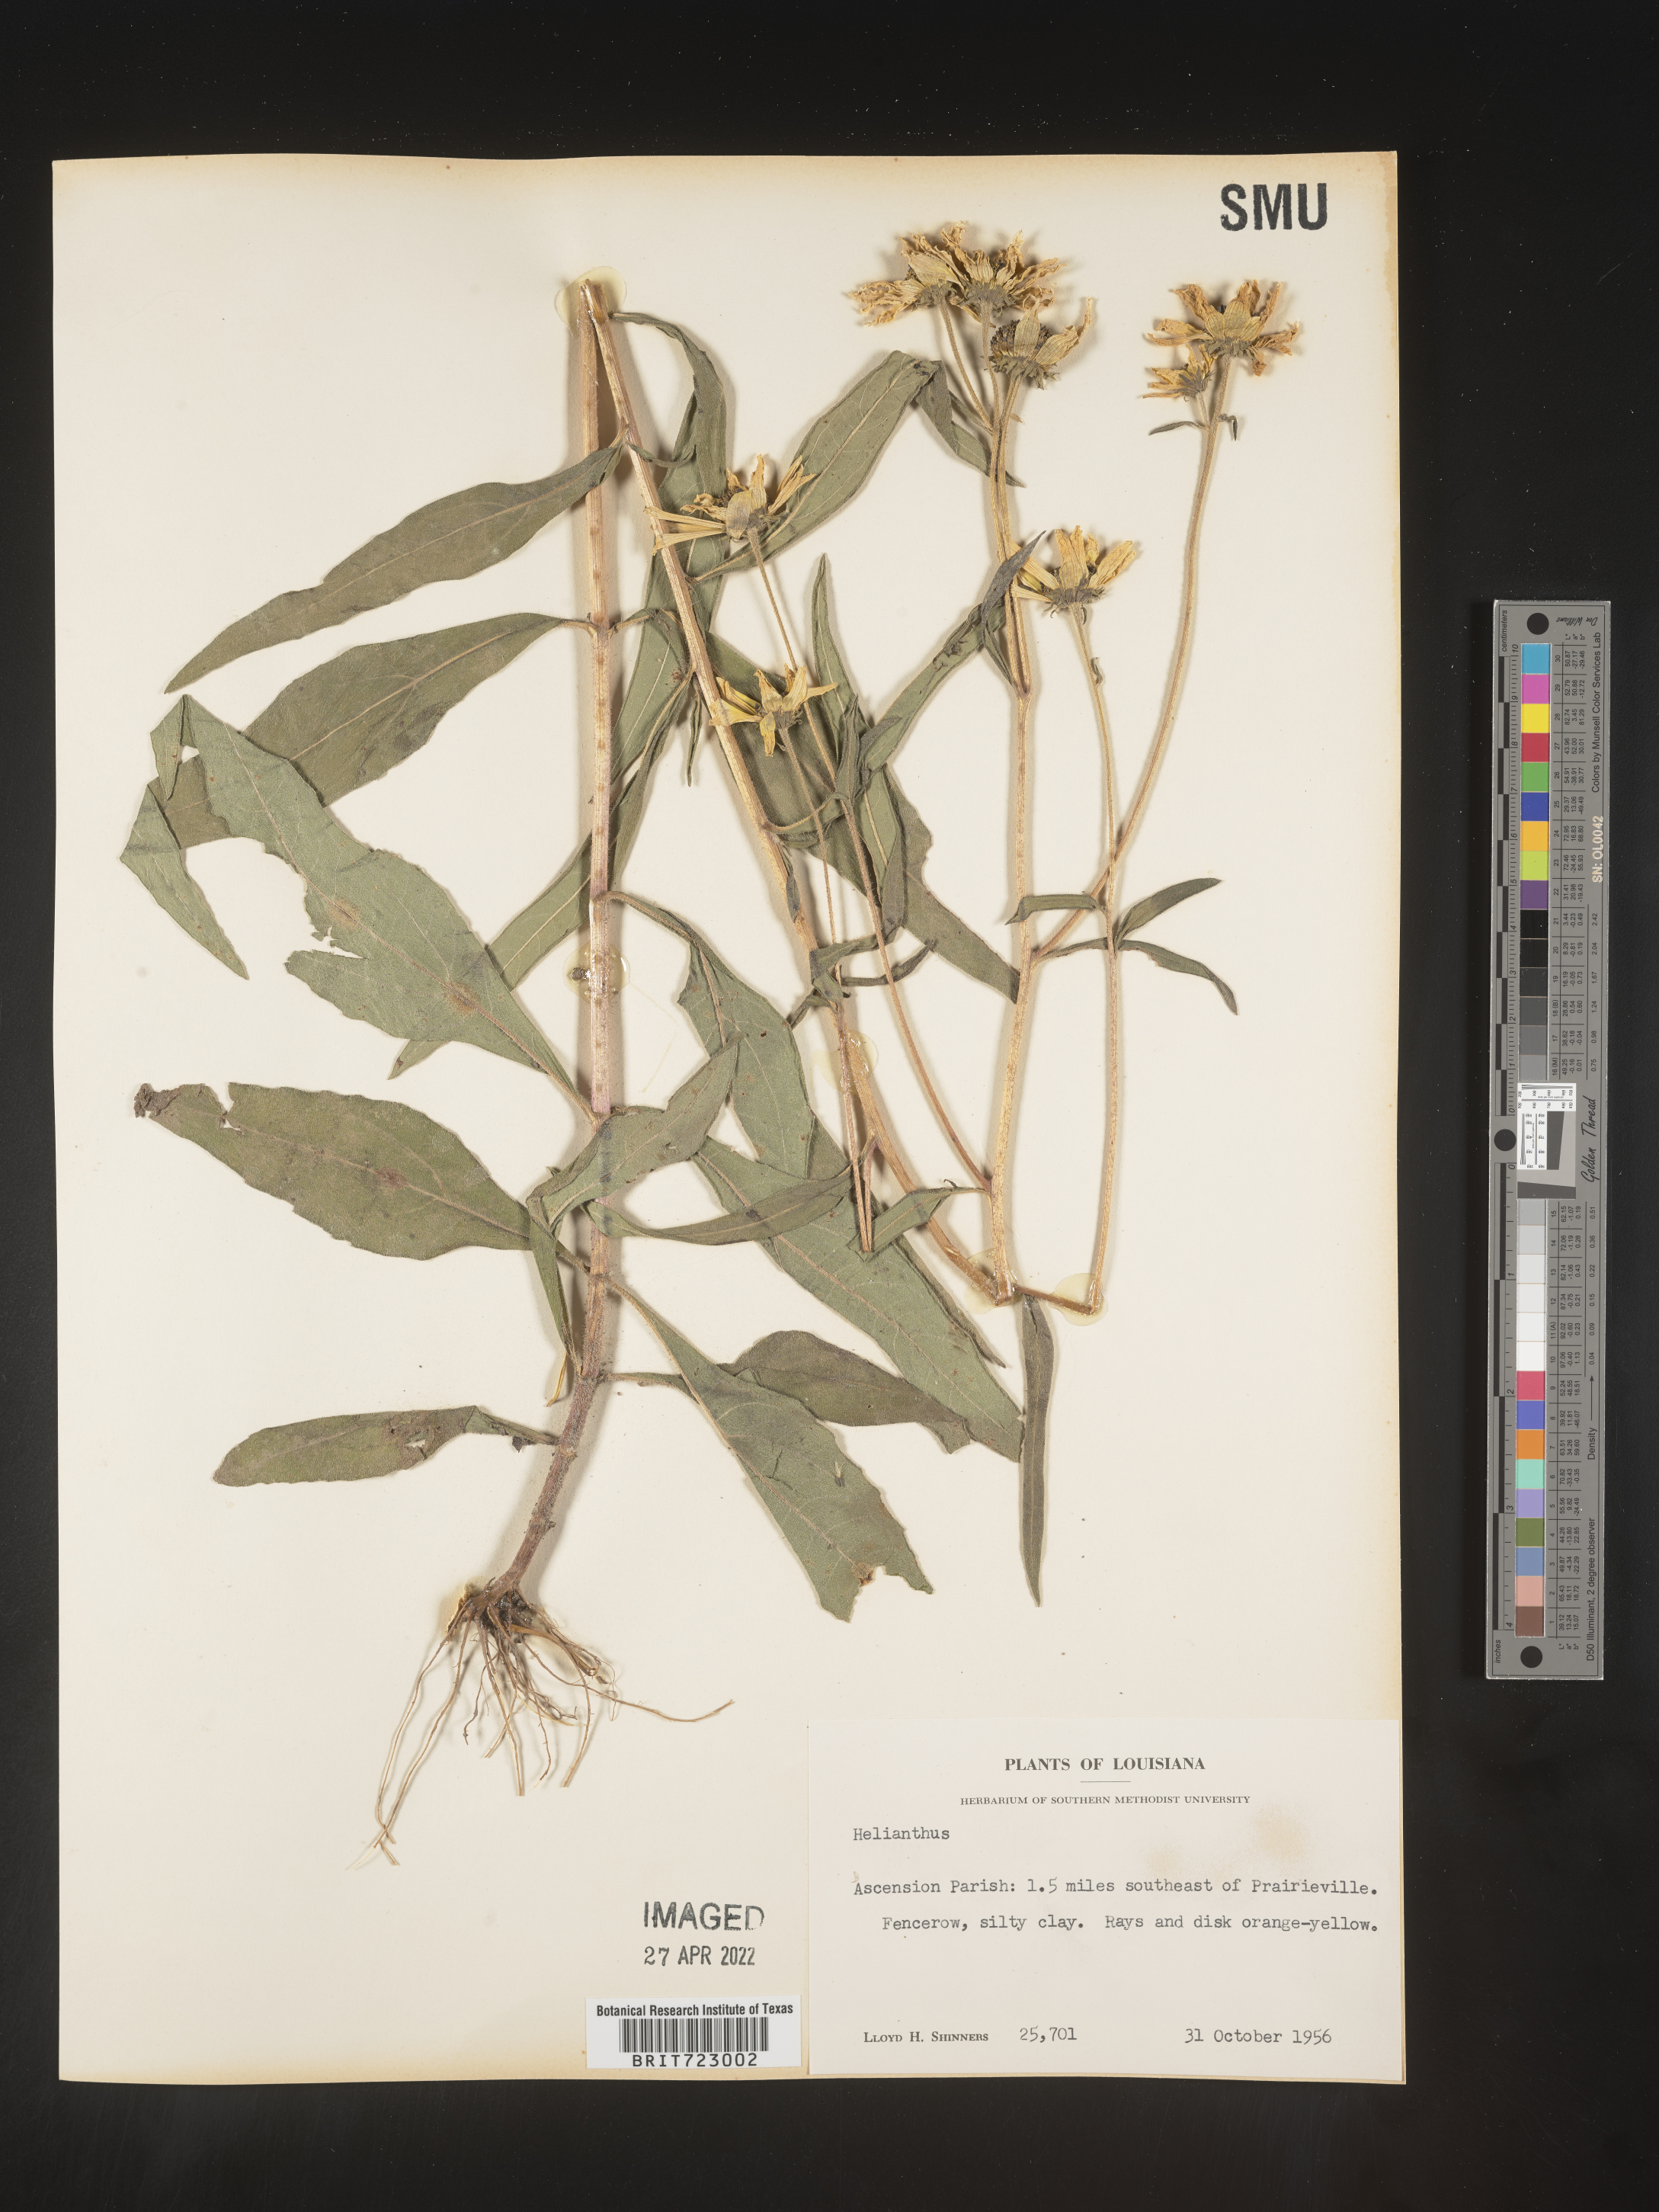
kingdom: Plantae
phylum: Tracheophyta
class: Magnoliopsida
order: Asterales
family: Asteraceae
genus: Helianthus
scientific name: Helianthus
